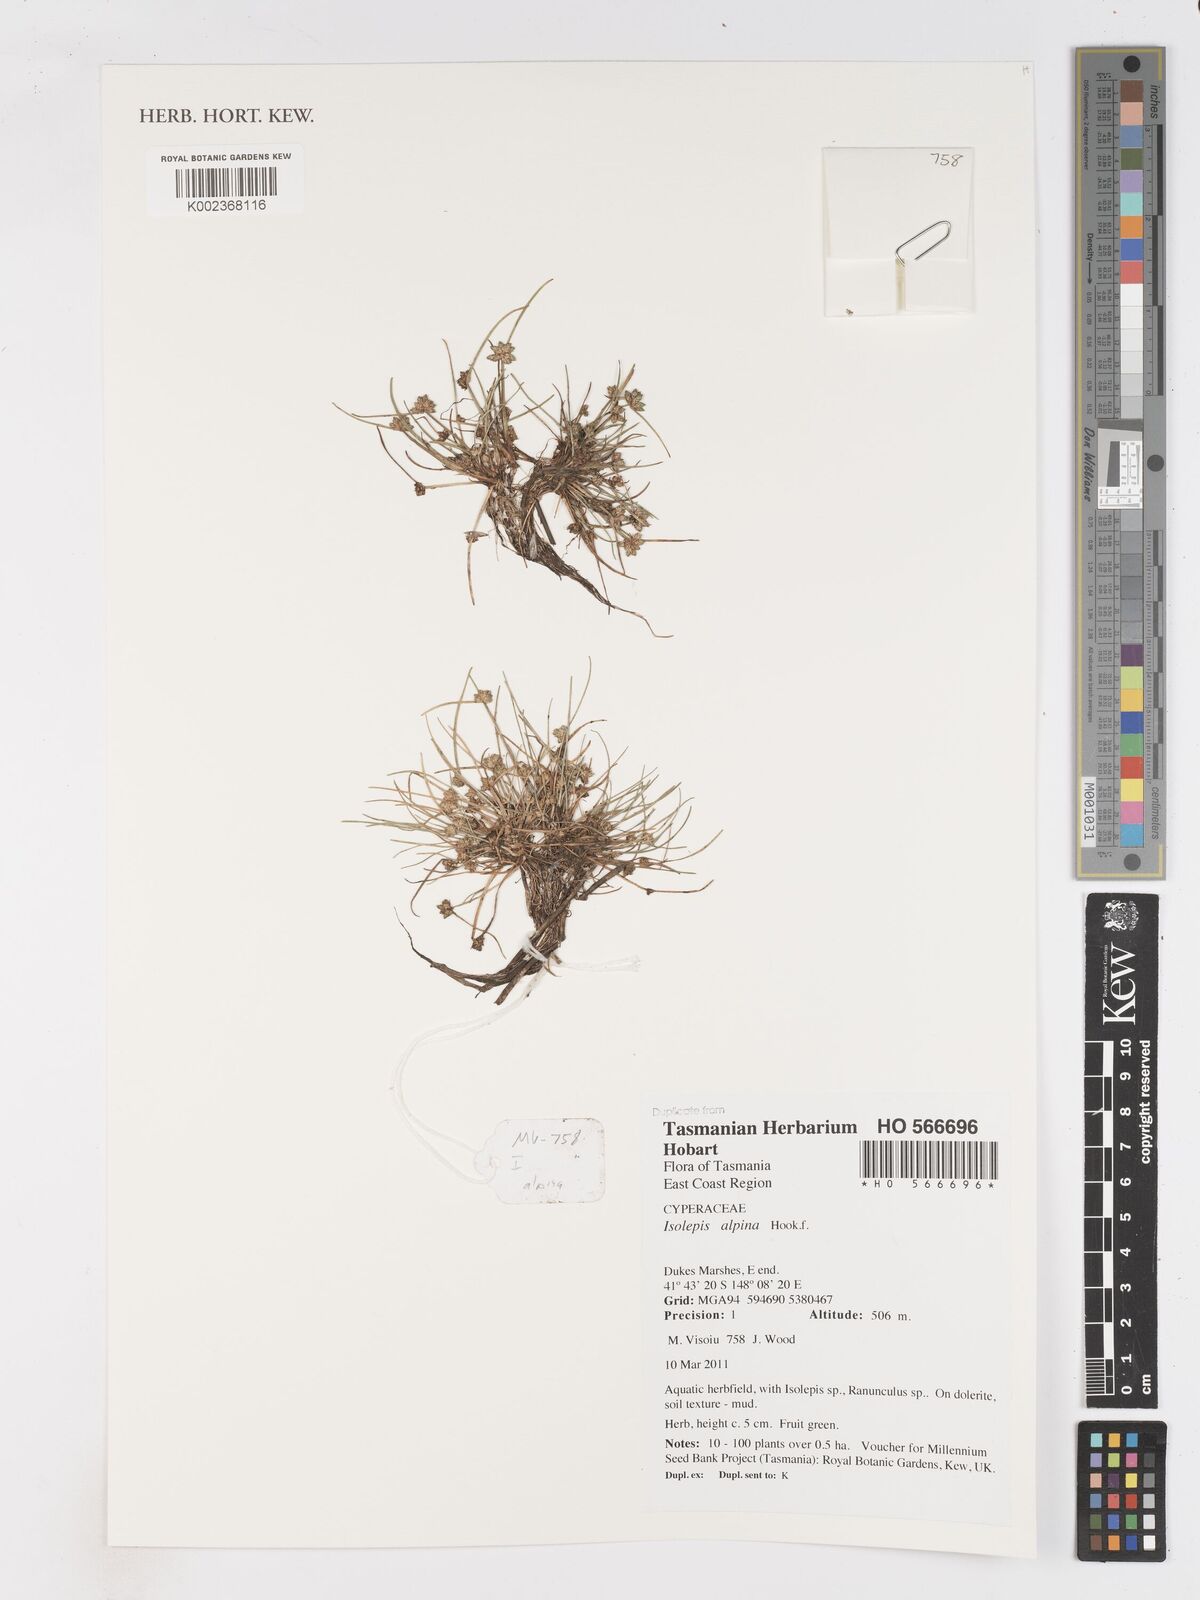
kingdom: Plantae
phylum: Tracheophyta
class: Liliopsida
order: Poales
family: Cyperaceae
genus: Isolepis
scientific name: Isolepis alpina
